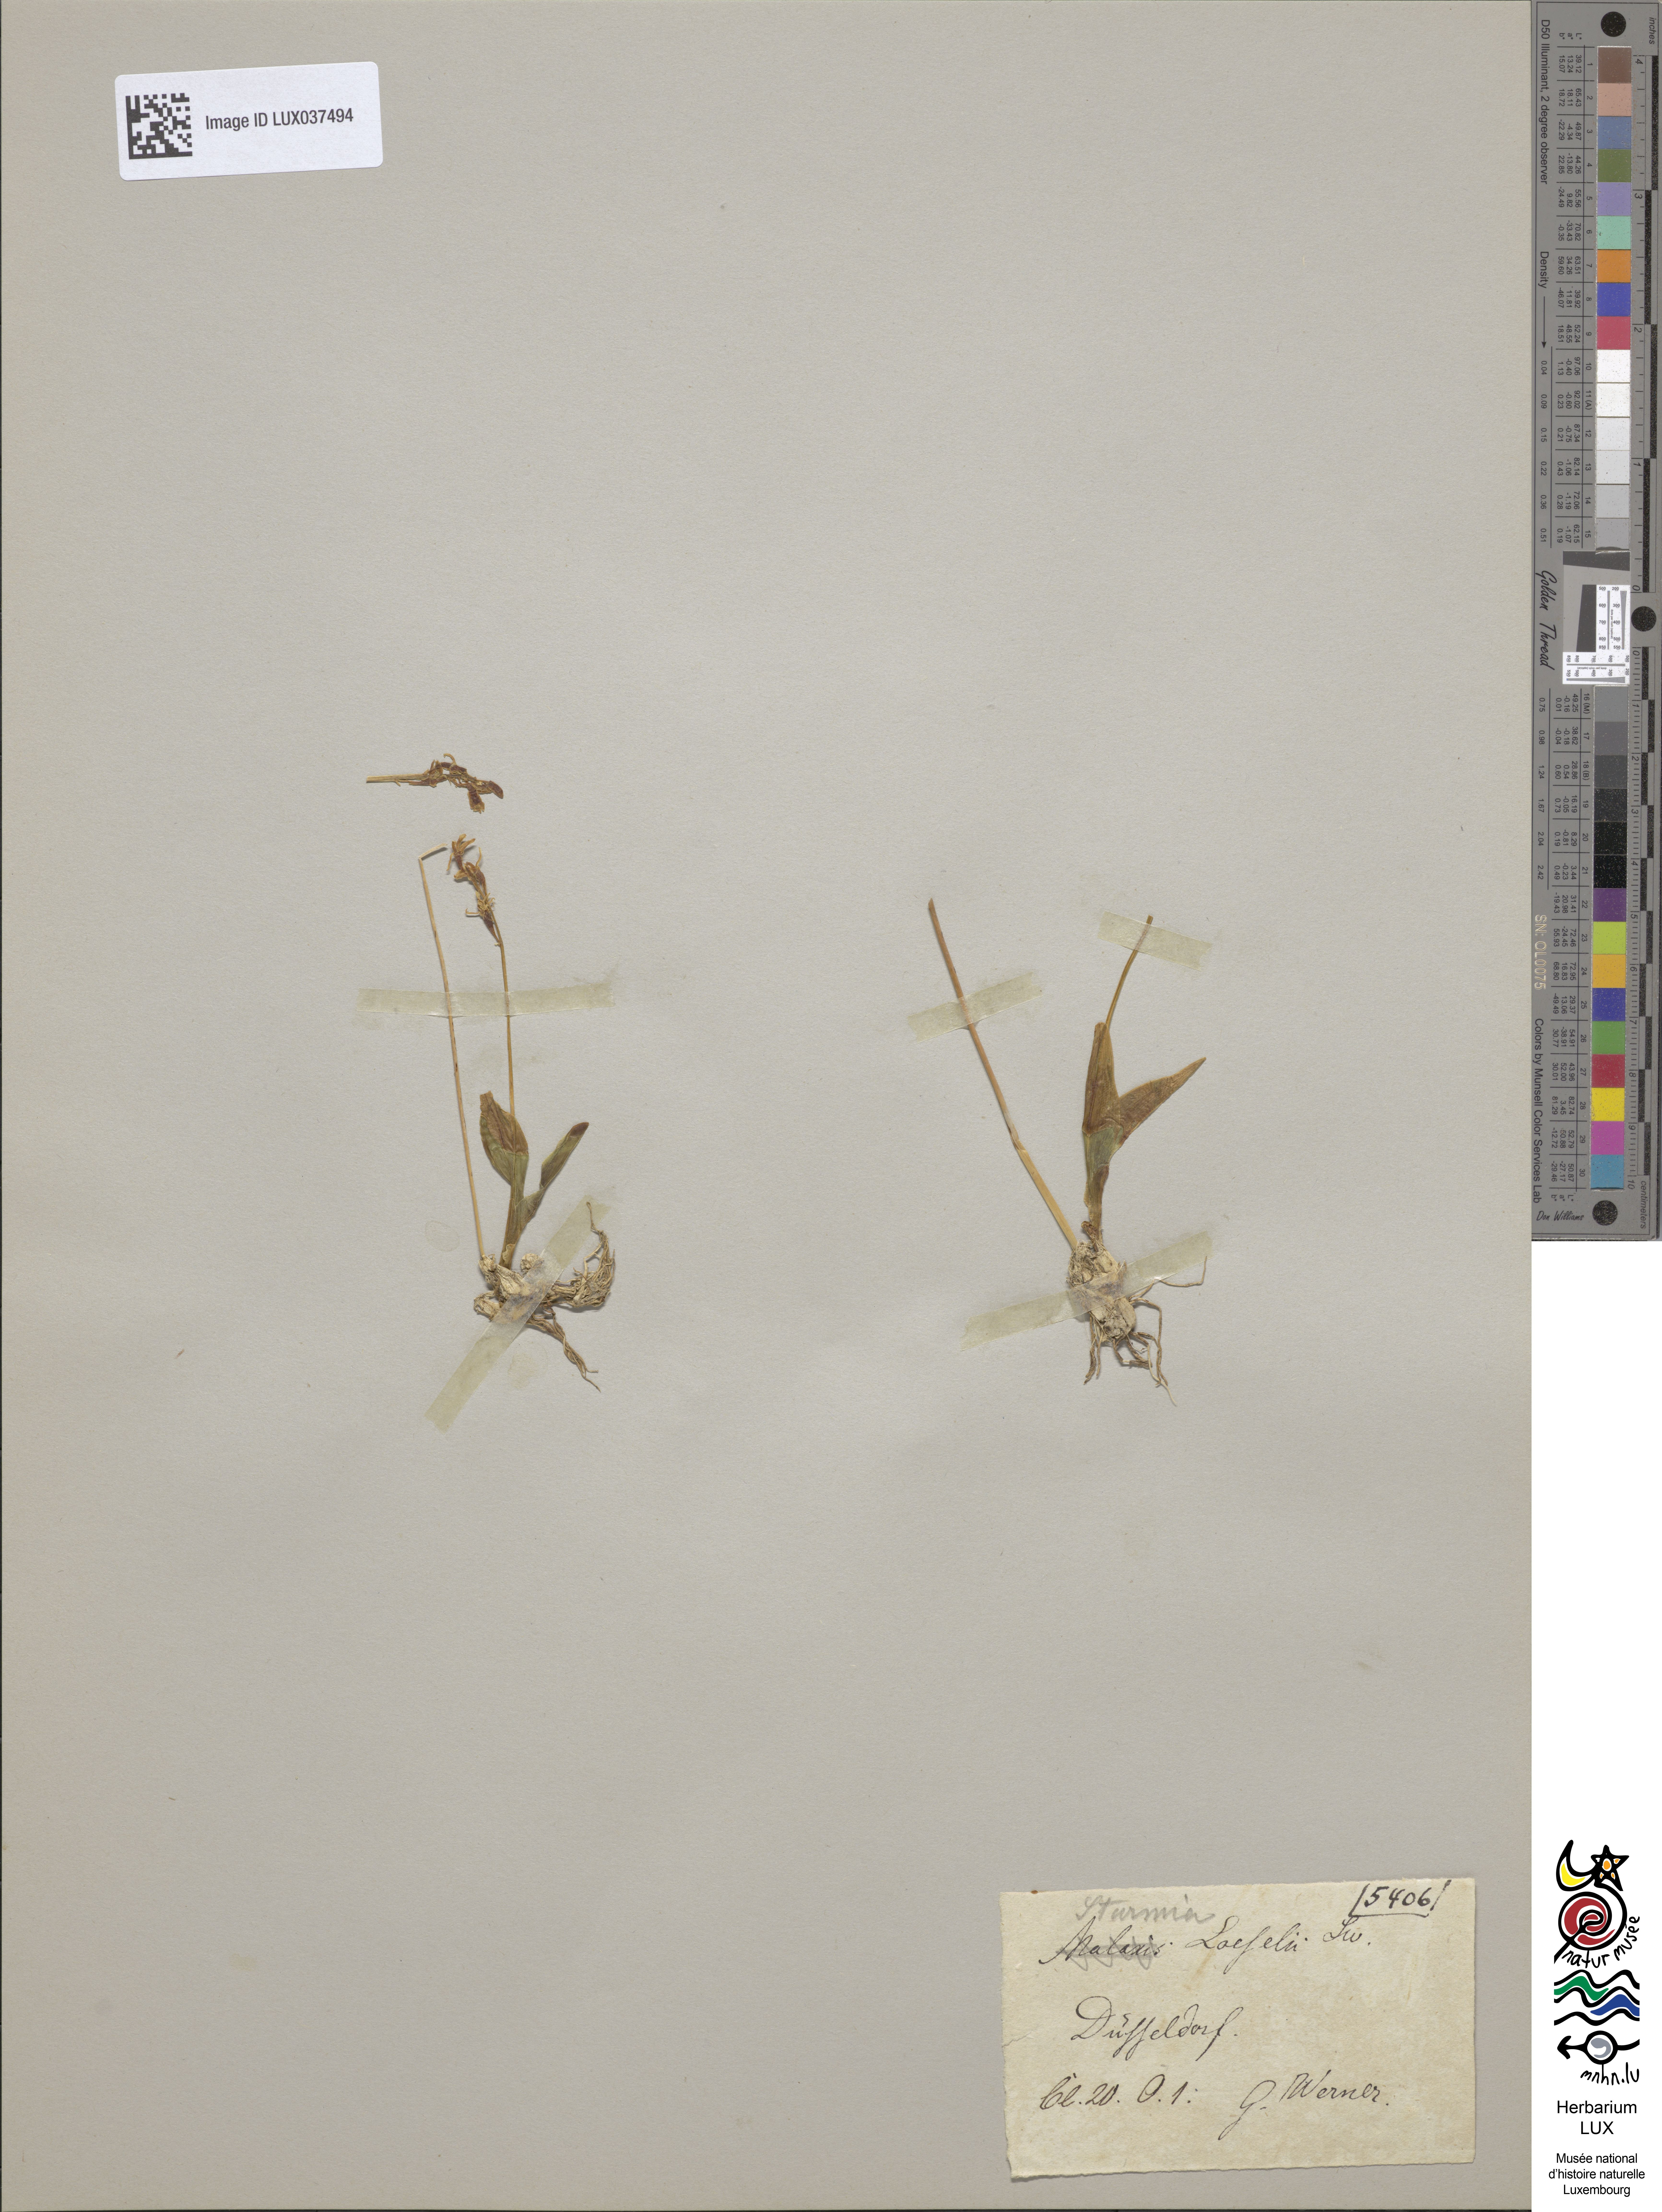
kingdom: Animalia
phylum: Arthropoda
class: Insecta
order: Coleoptera
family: Curculionidae
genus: Liparis
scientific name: Liparis loeselii
